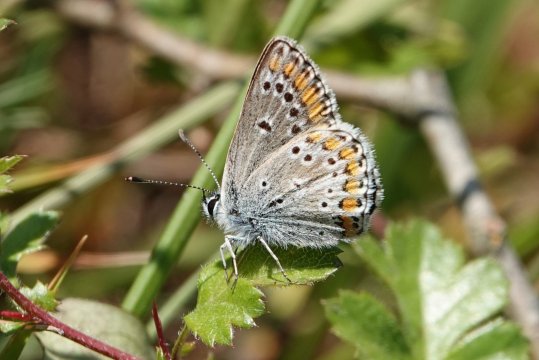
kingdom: Animalia
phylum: Arthropoda
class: Insecta
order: Lepidoptera
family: Lycaenidae
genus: Aricia
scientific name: Aricia agestis
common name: Brown Argus
